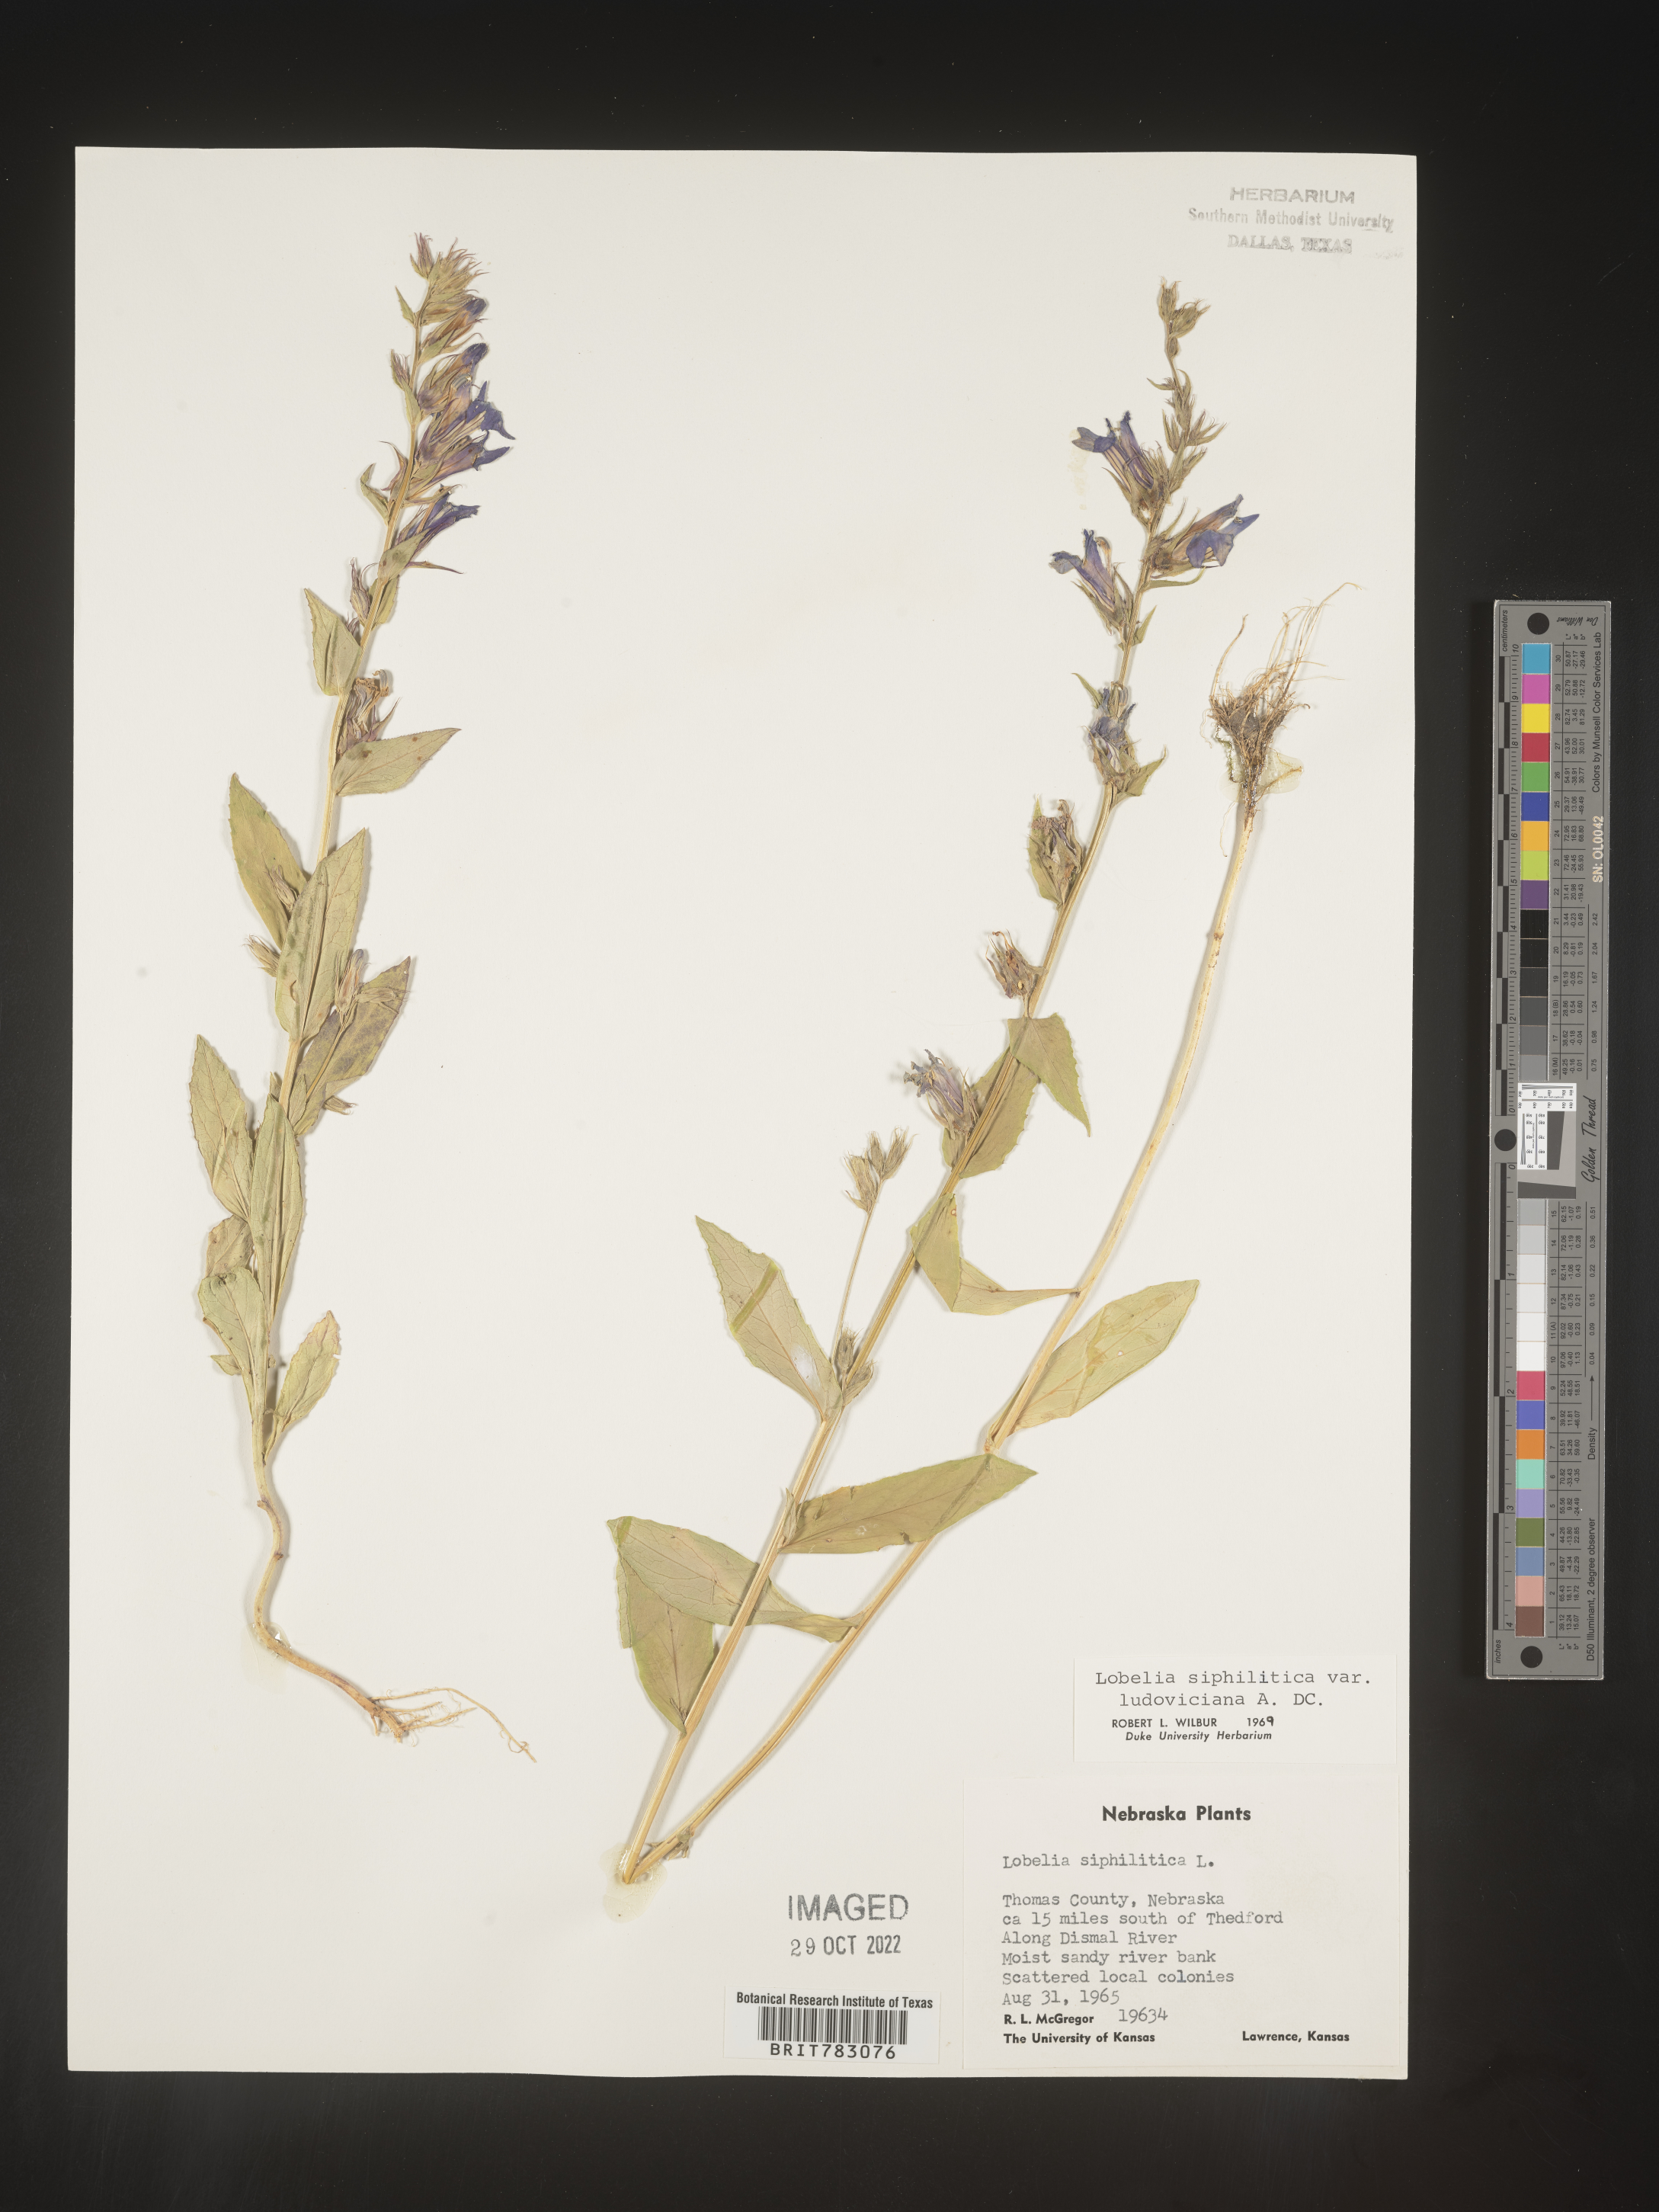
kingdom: Plantae
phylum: Tracheophyta
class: Magnoliopsida
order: Asterales
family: Campanulaceae
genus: Lobelia
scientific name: Lobelia siphilitica
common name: Great lobelia
